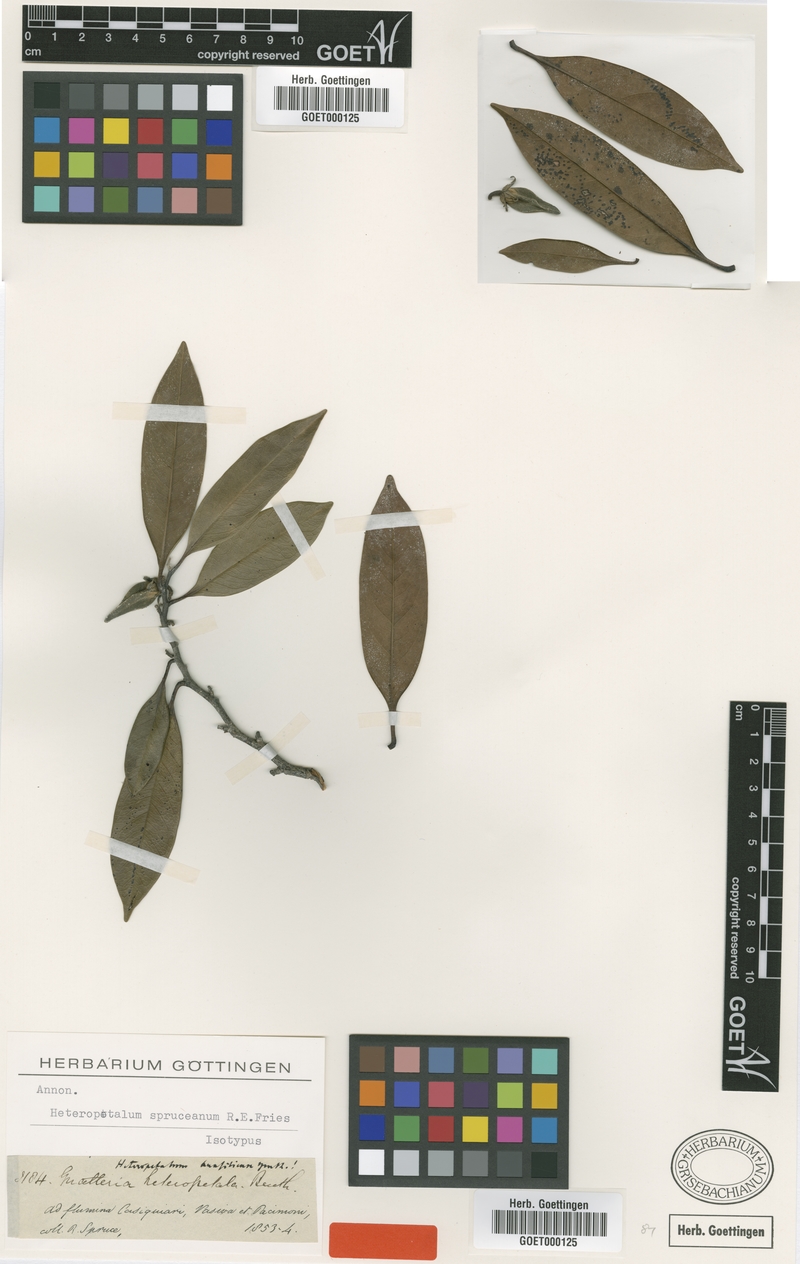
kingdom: Plantae
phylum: Tracheophyta
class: Magnoliopsida
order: Magnoliales
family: Annonaceae
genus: Guatteria
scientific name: Guatteria heteropetala
